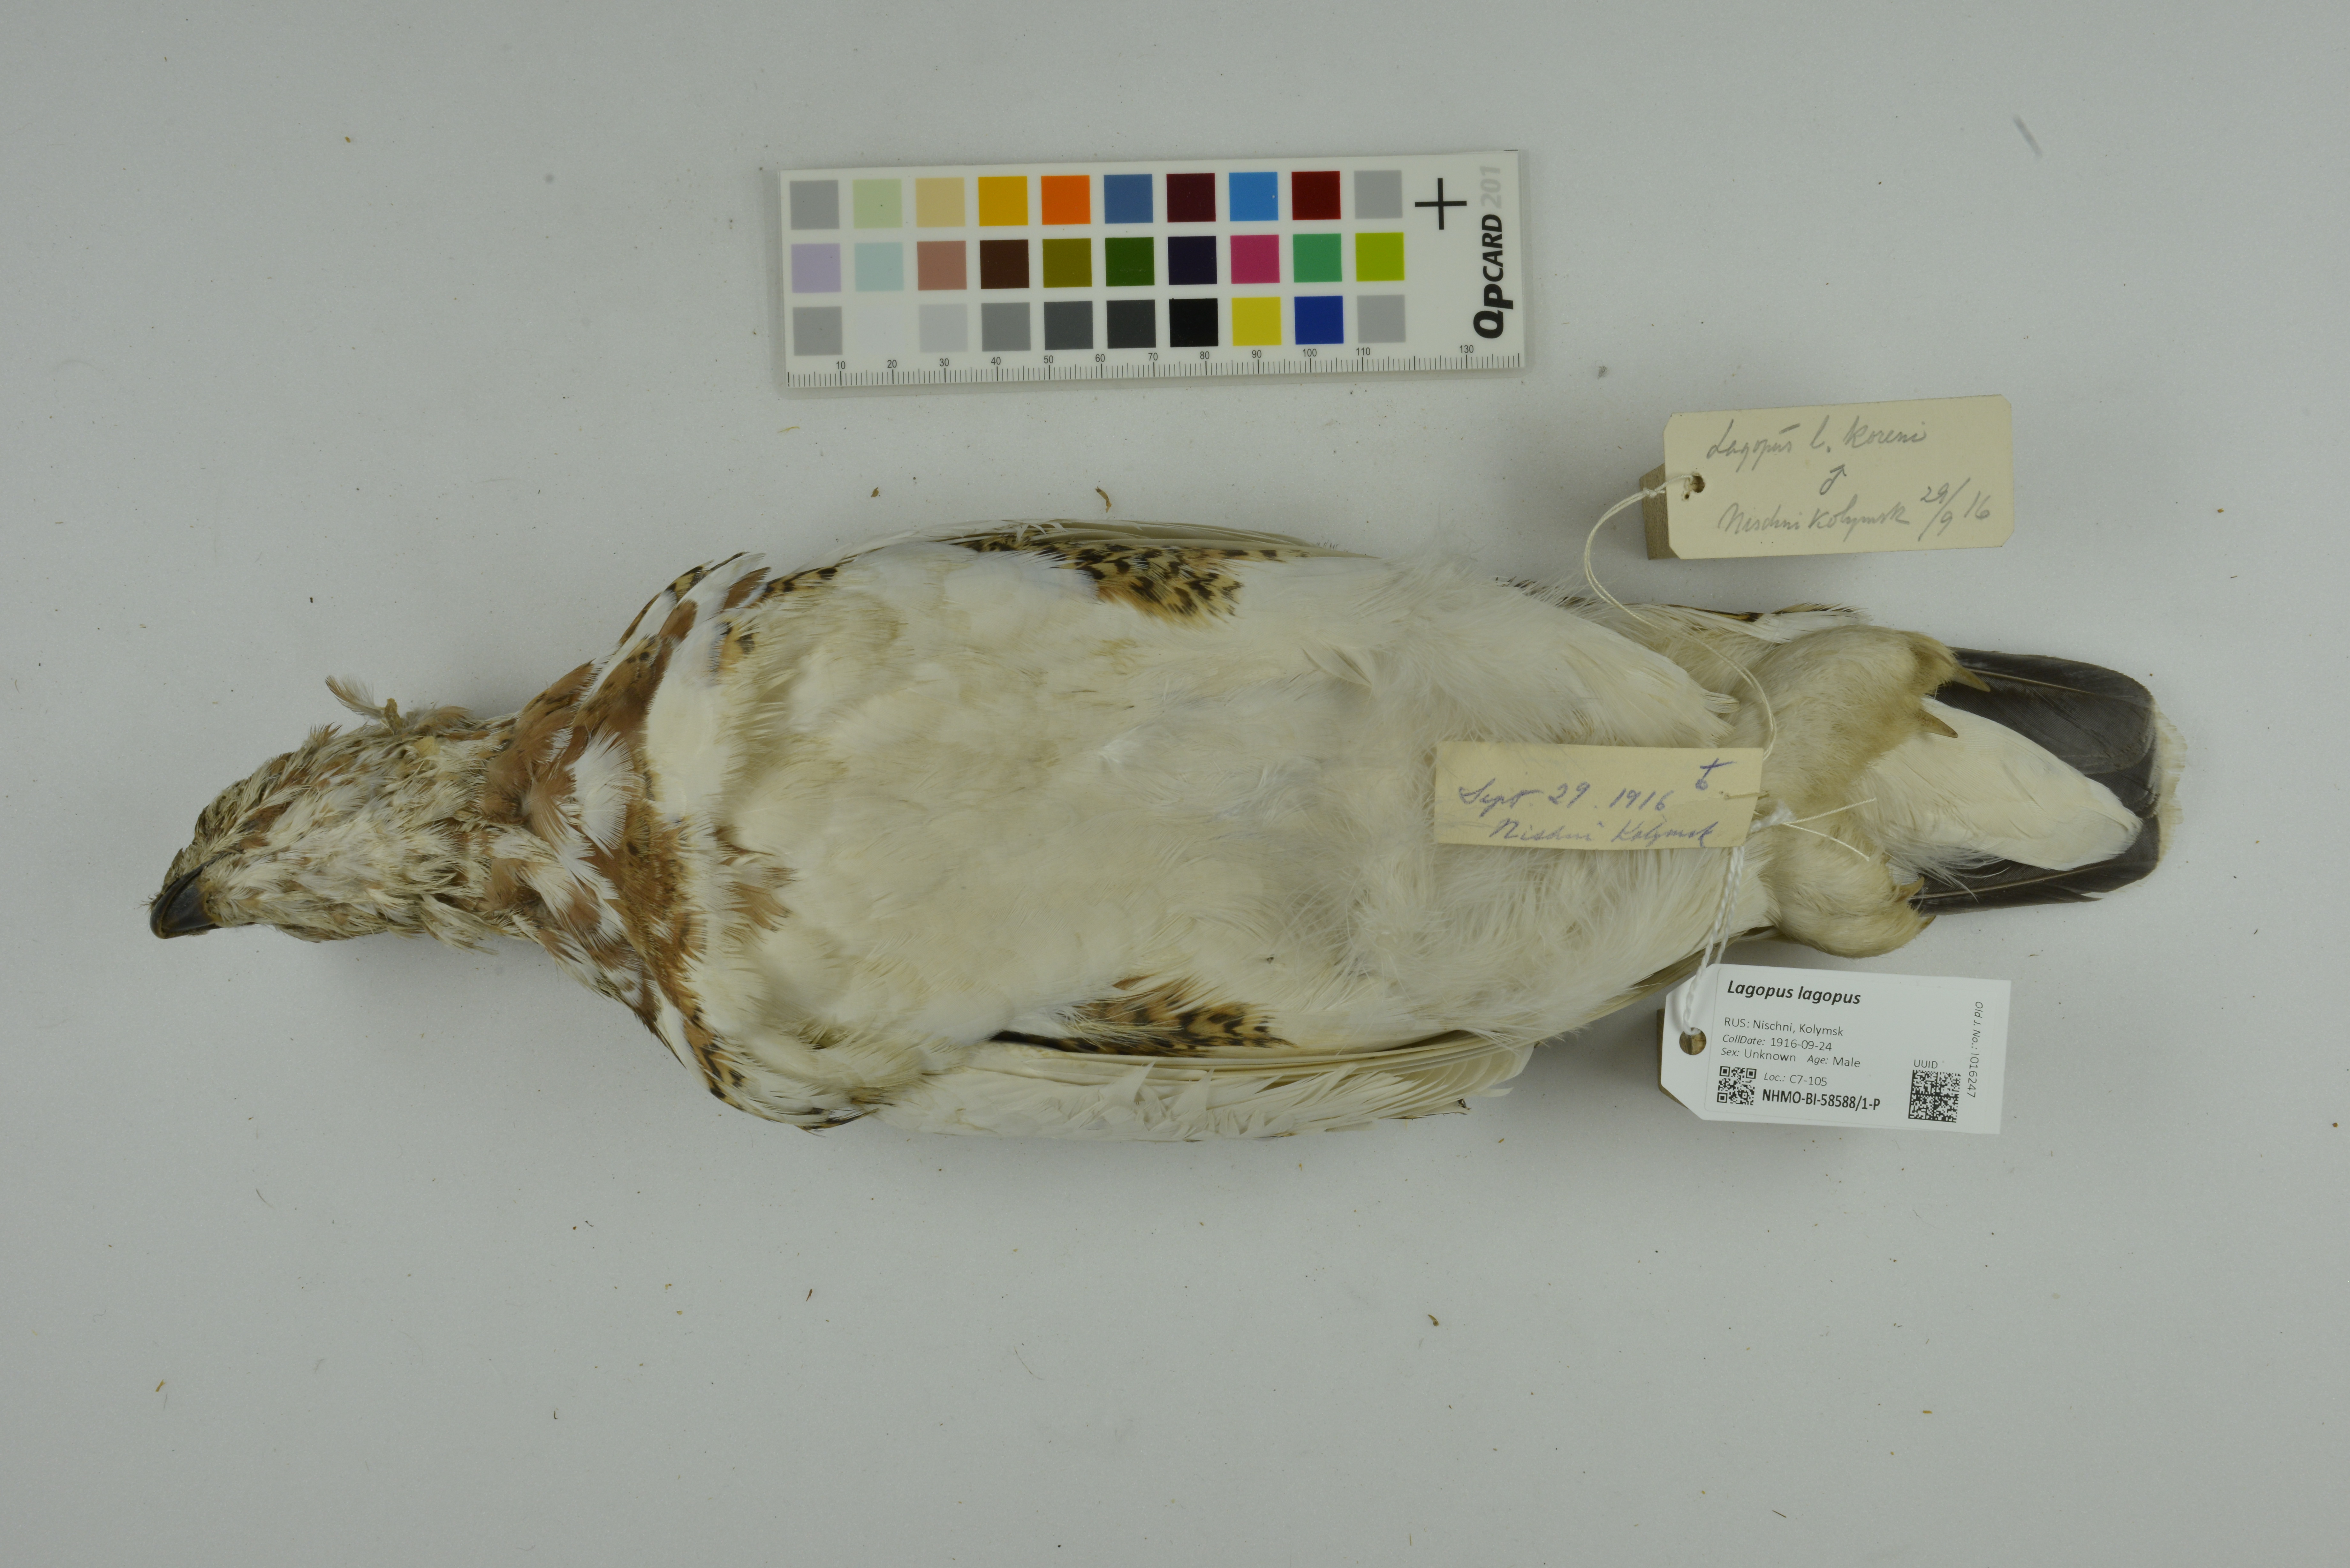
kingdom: Animalia
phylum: Chordata
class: Aves
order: Galliformes
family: Phasianidae
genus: Lagopus
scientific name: Lagopus lagopus
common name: Willow ptarmigan
